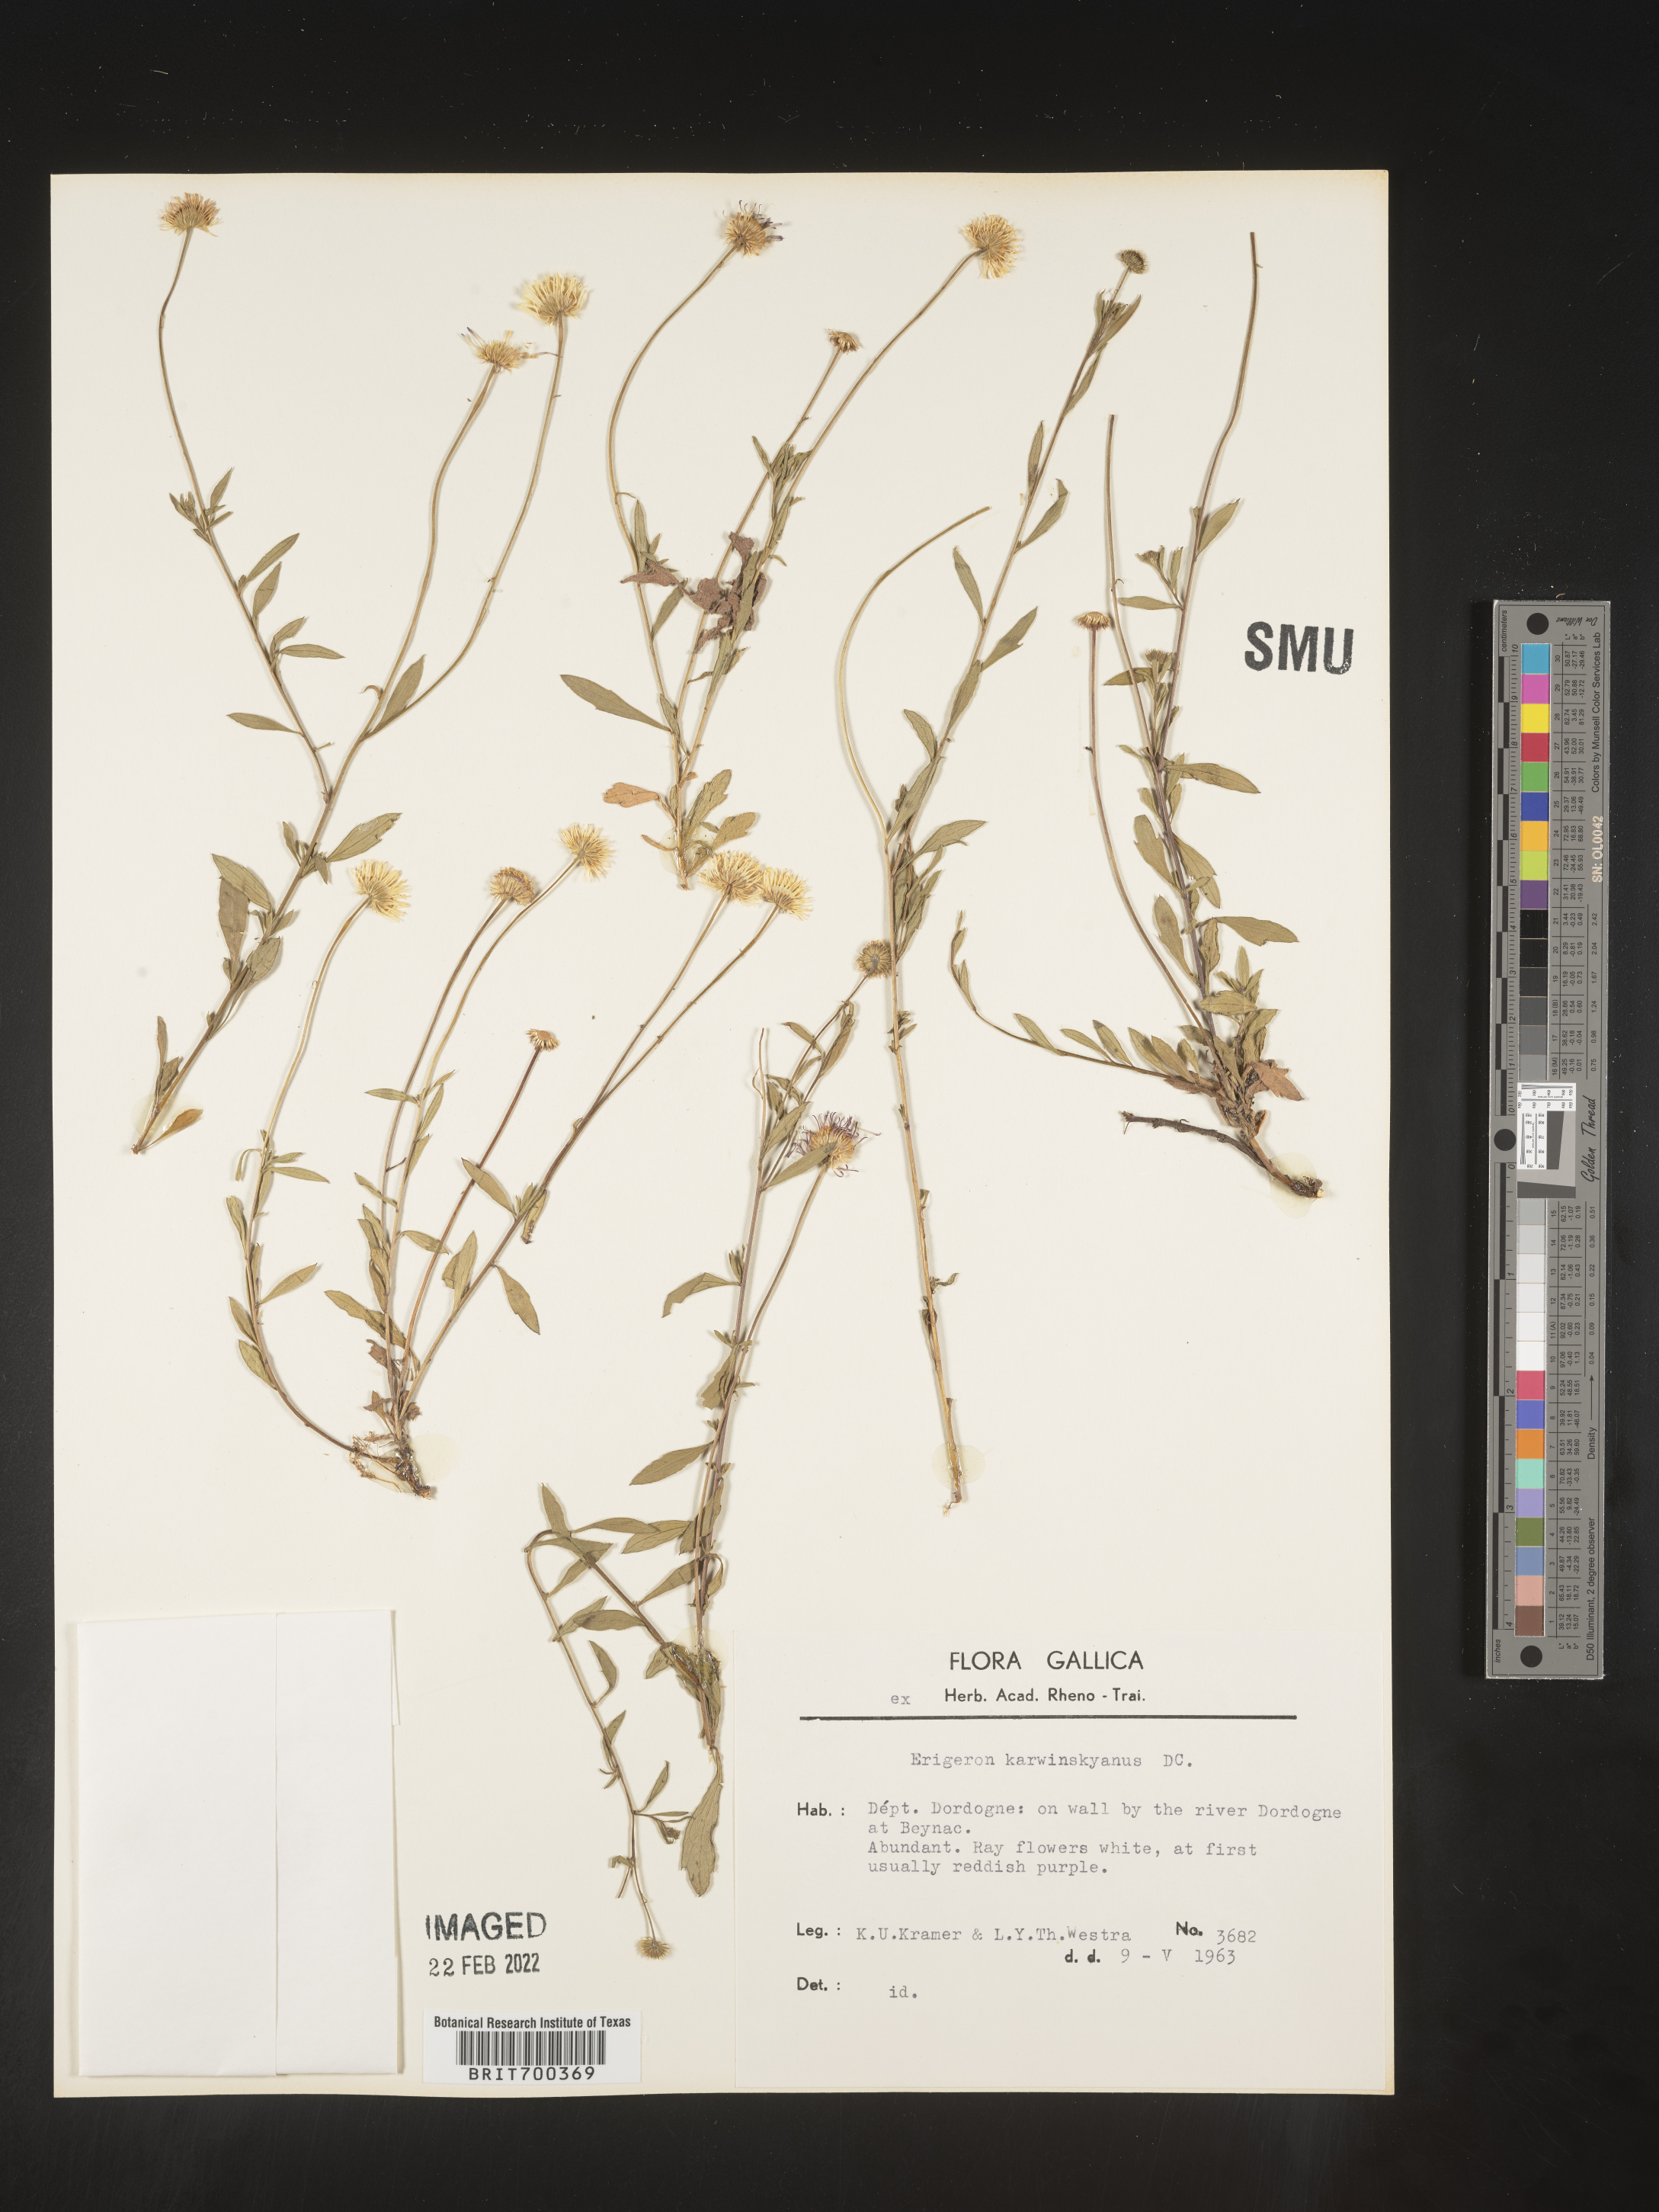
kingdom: Plantae
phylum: Tracheophyta
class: Magnoliopsida
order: Asterales
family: Asteraceae
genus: Erigeron
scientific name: Erigeron
